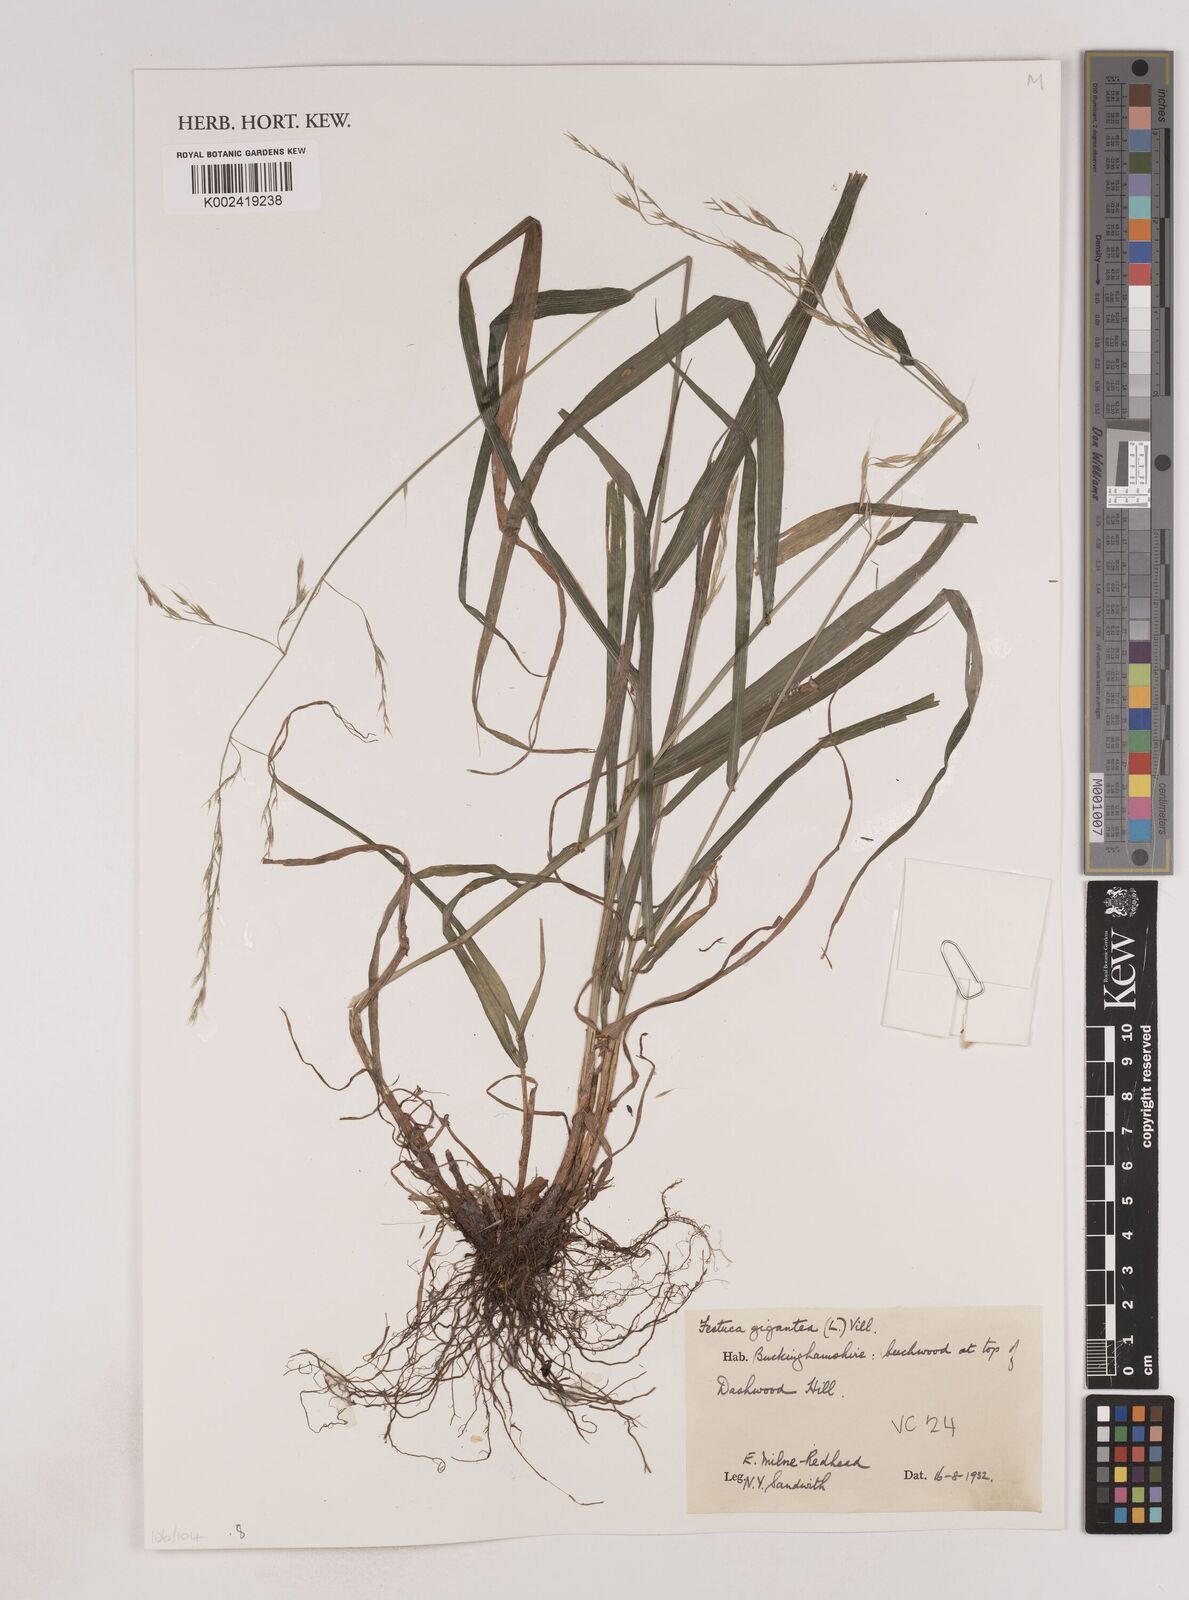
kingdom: Plantae
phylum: Tracheophyta
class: Liliopsida
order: Poales
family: Poaceae
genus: Lolium
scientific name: Lolium giganteum
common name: Giant fescue
